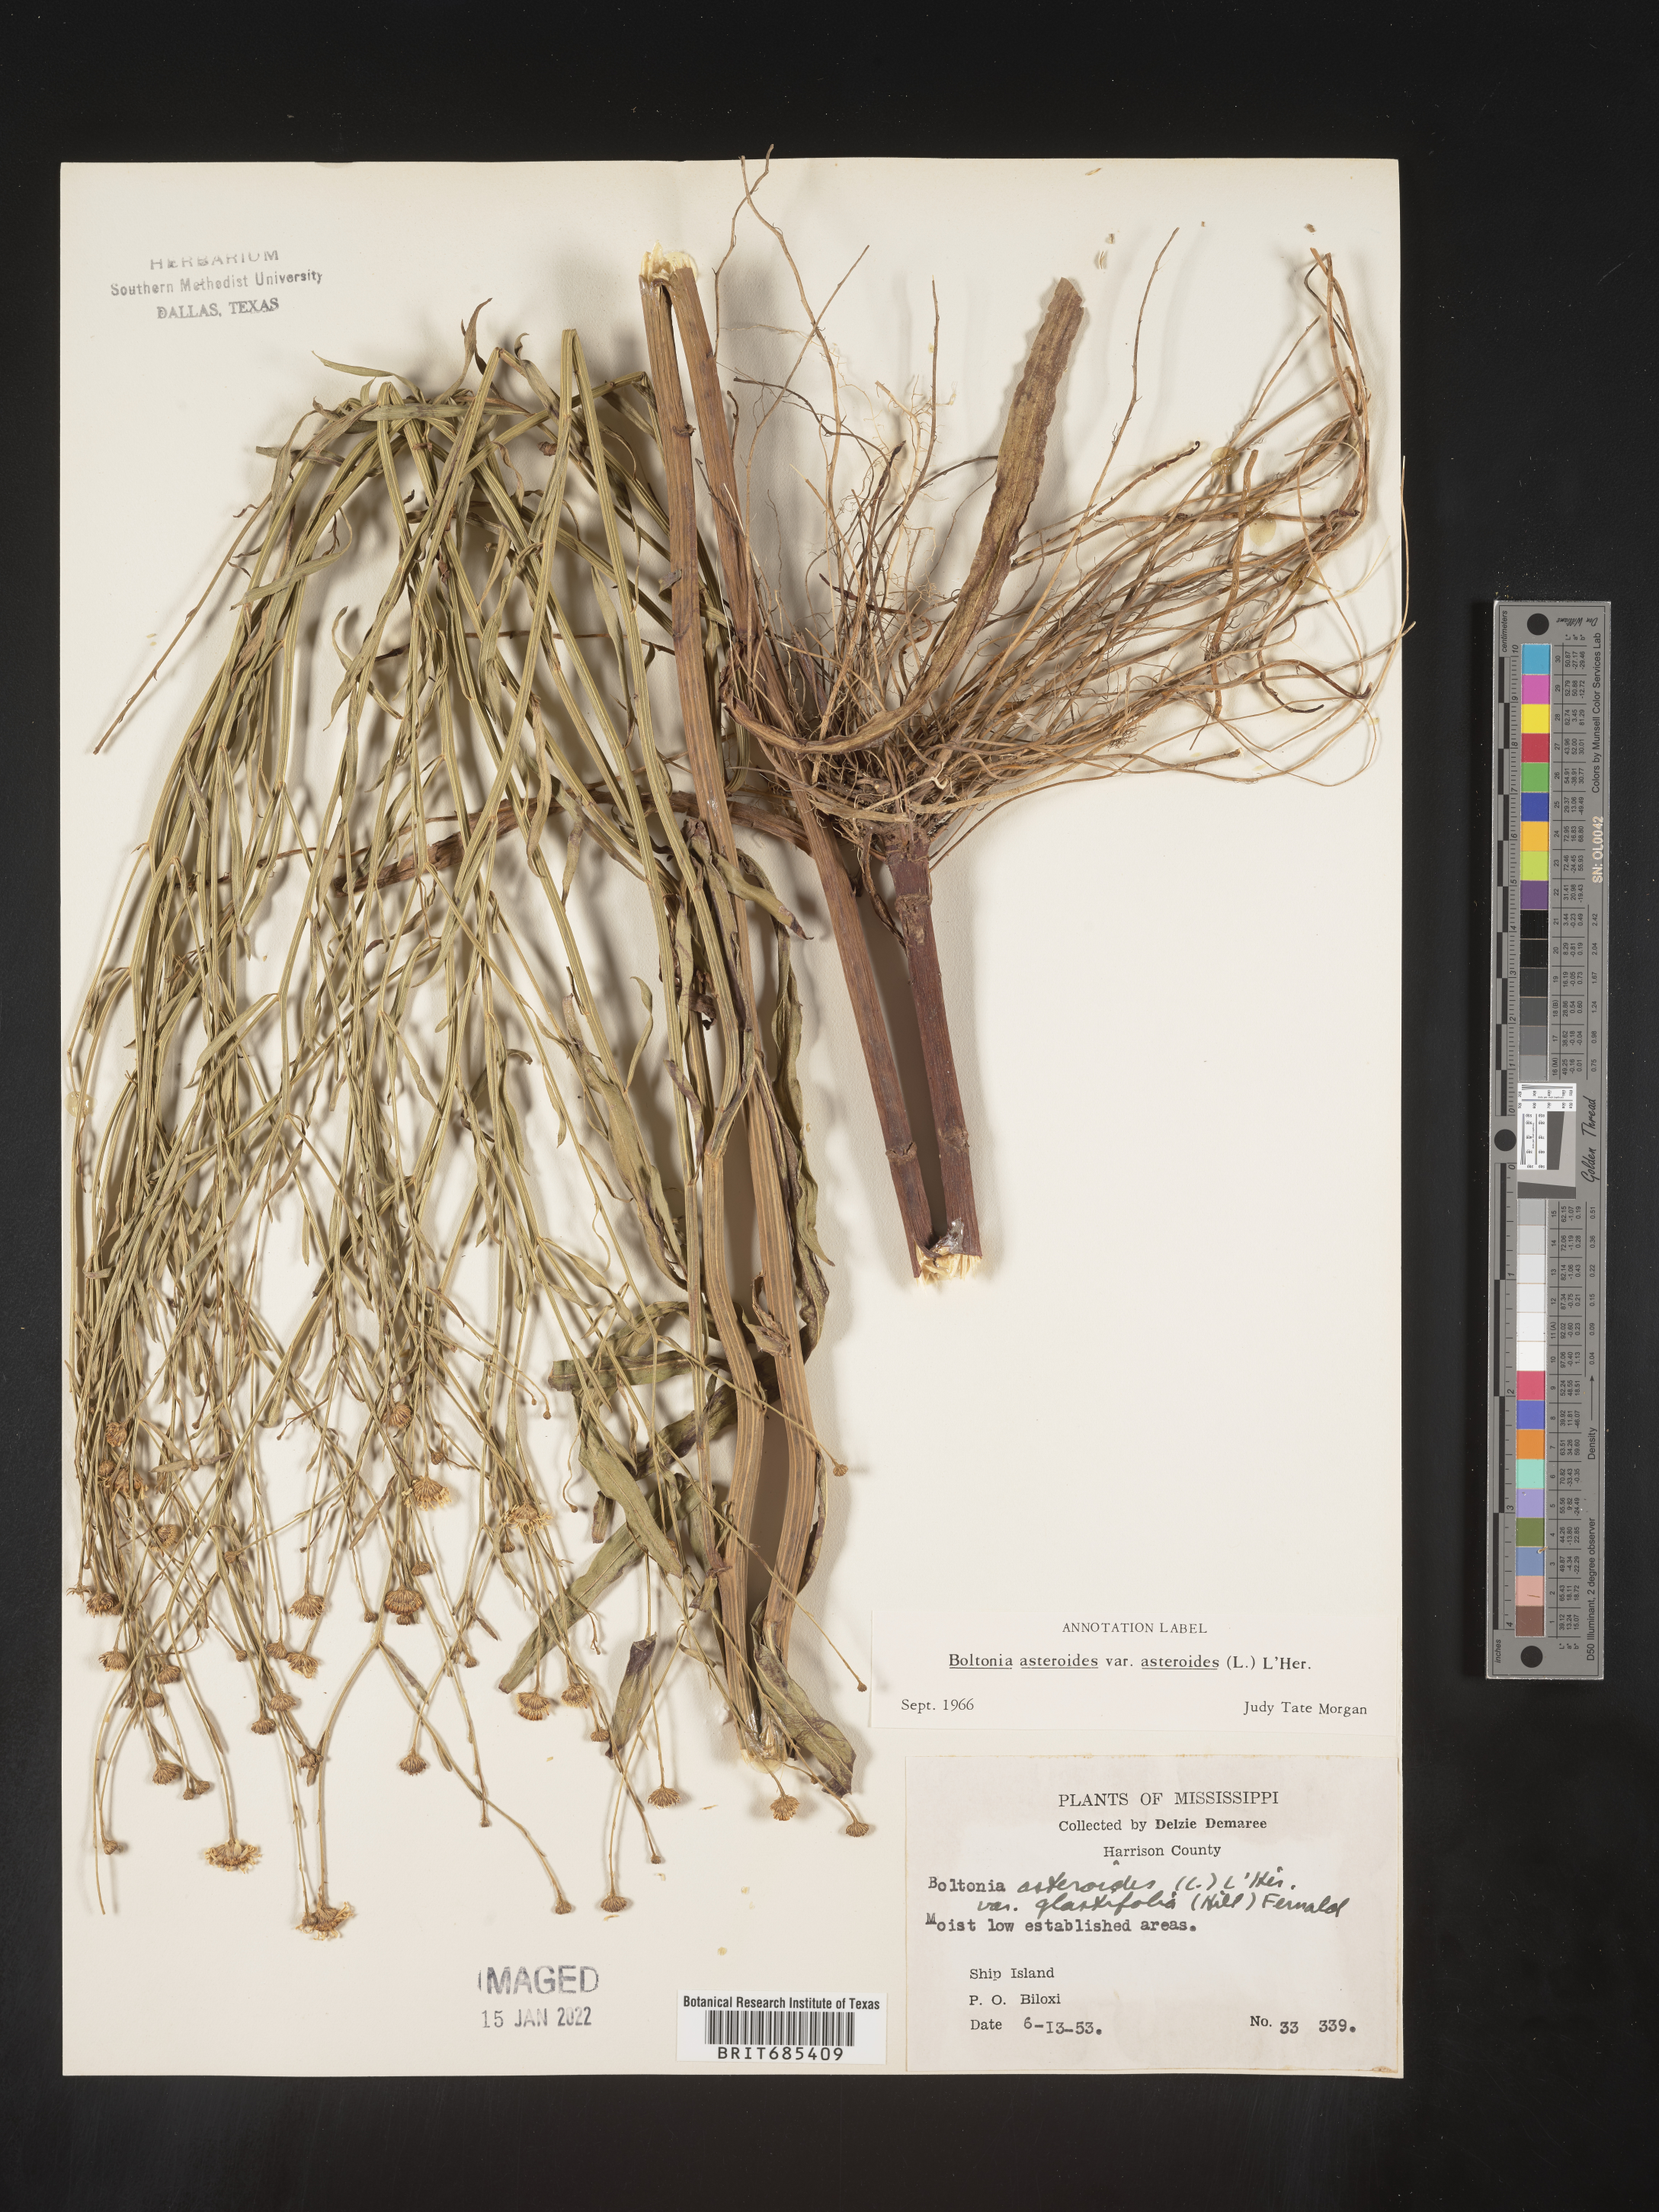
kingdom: Plantae
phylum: Tracheophyta
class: Magnoliopsida
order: Asterales
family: Asteraceae
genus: Boltonia
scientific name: Boltonia asteroides
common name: False chamomile
